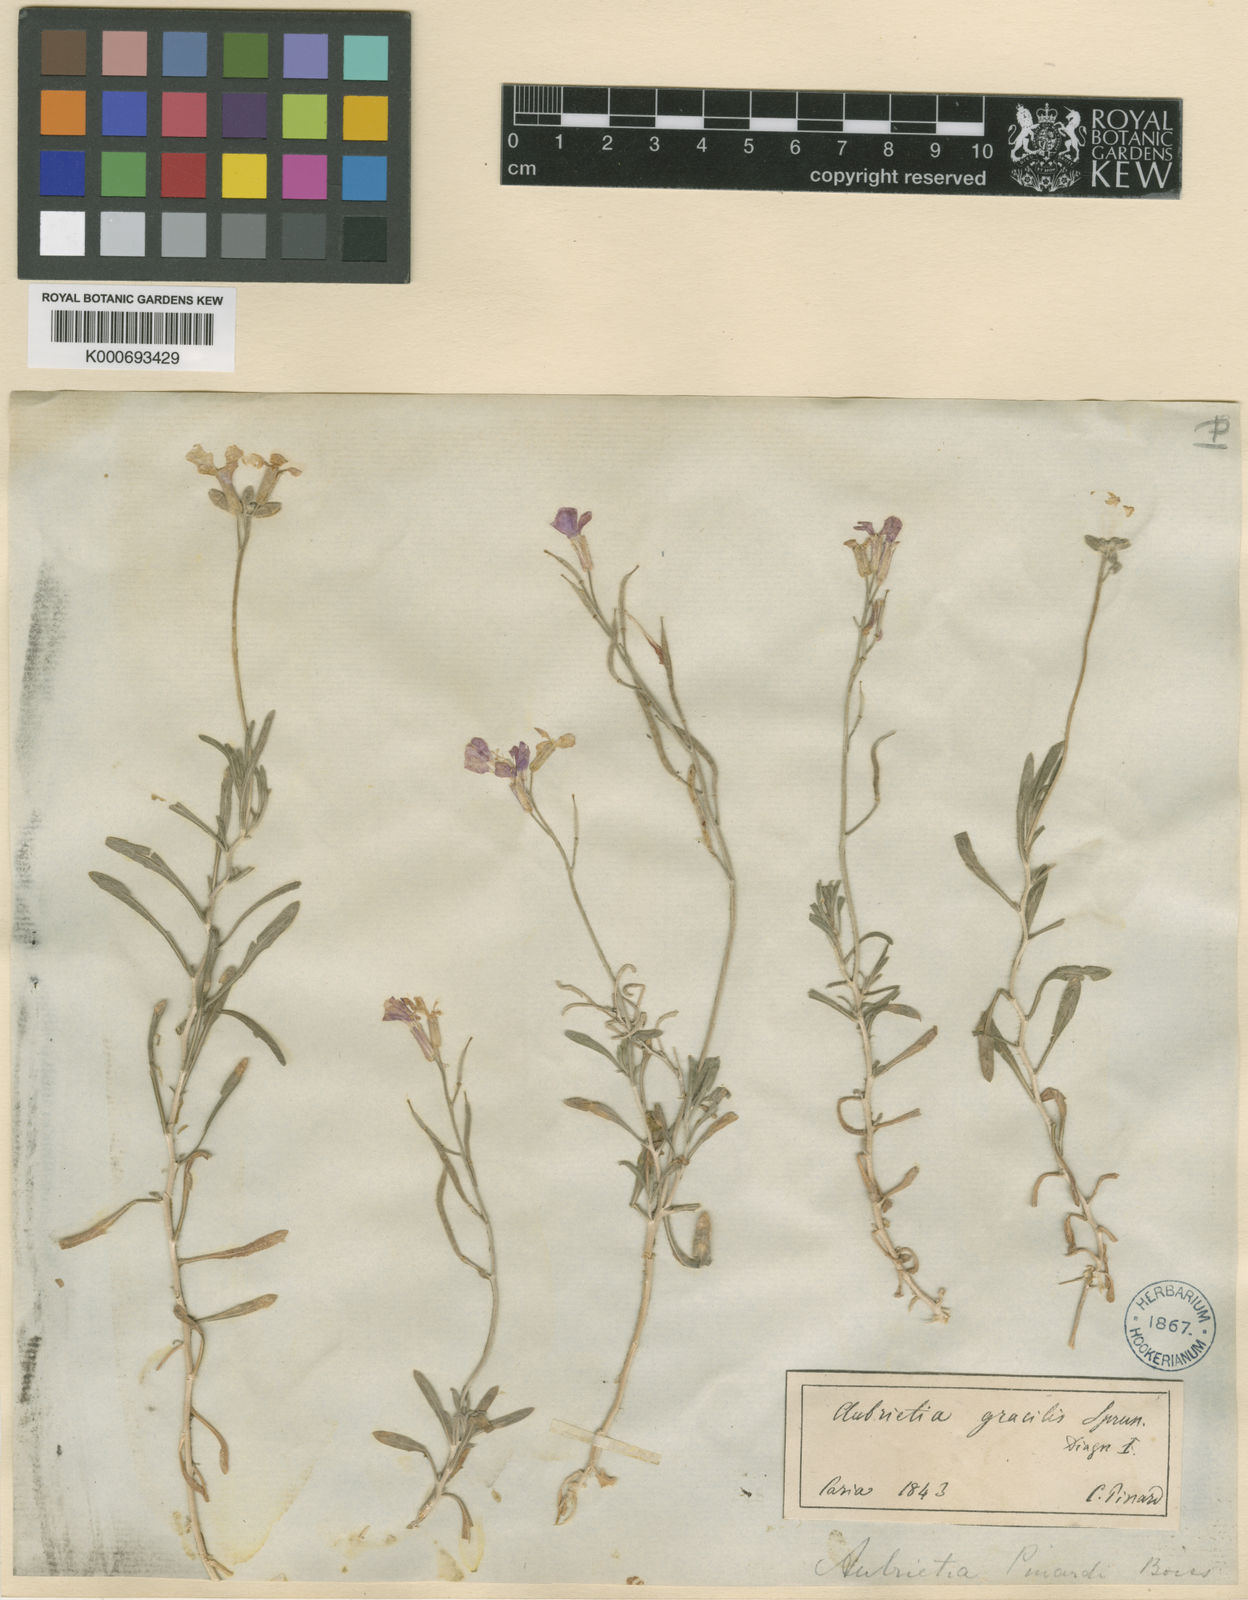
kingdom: Plantae
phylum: Tracheophyta
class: Magnoliopsida
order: Brassicales
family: Brassicaceae
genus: Aubrieta
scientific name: Aubrieta pinardii
